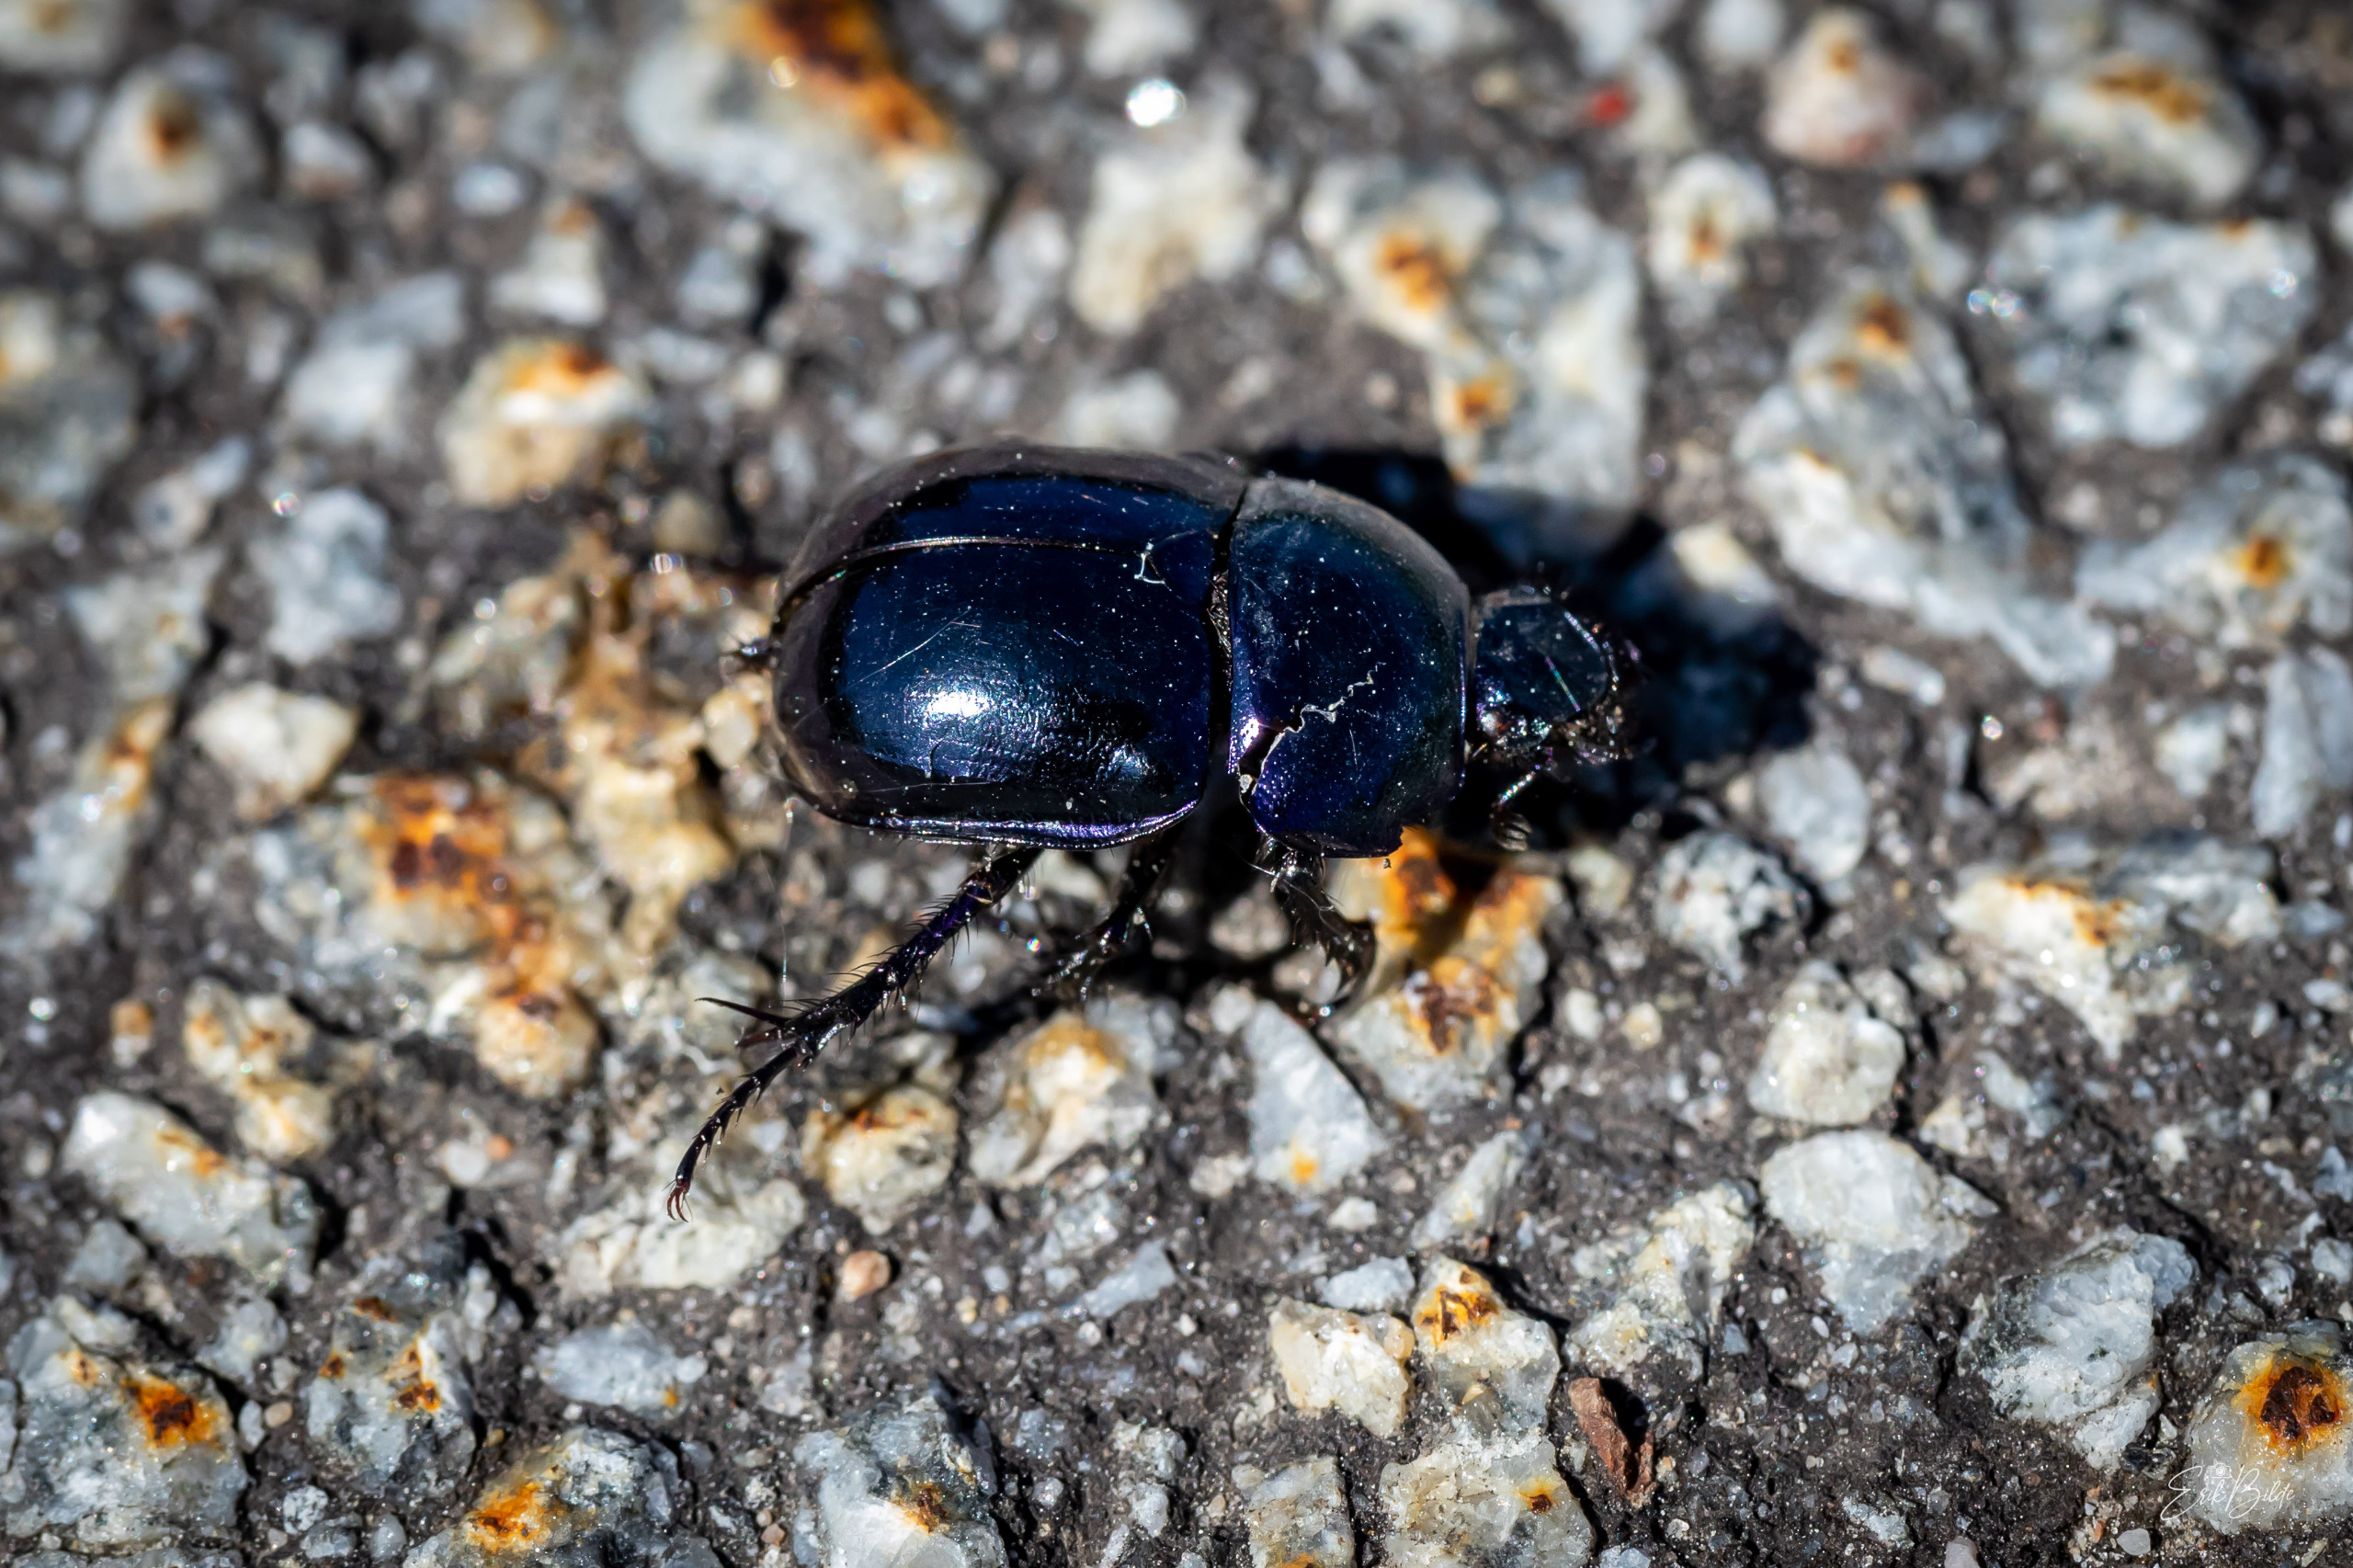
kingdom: Animalia
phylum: Arthropoda
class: Insecta
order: Coleoptera
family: Geotrupidae
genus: Trypocopris
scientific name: Trypocopris vernalis
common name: Glat skarnbasse
